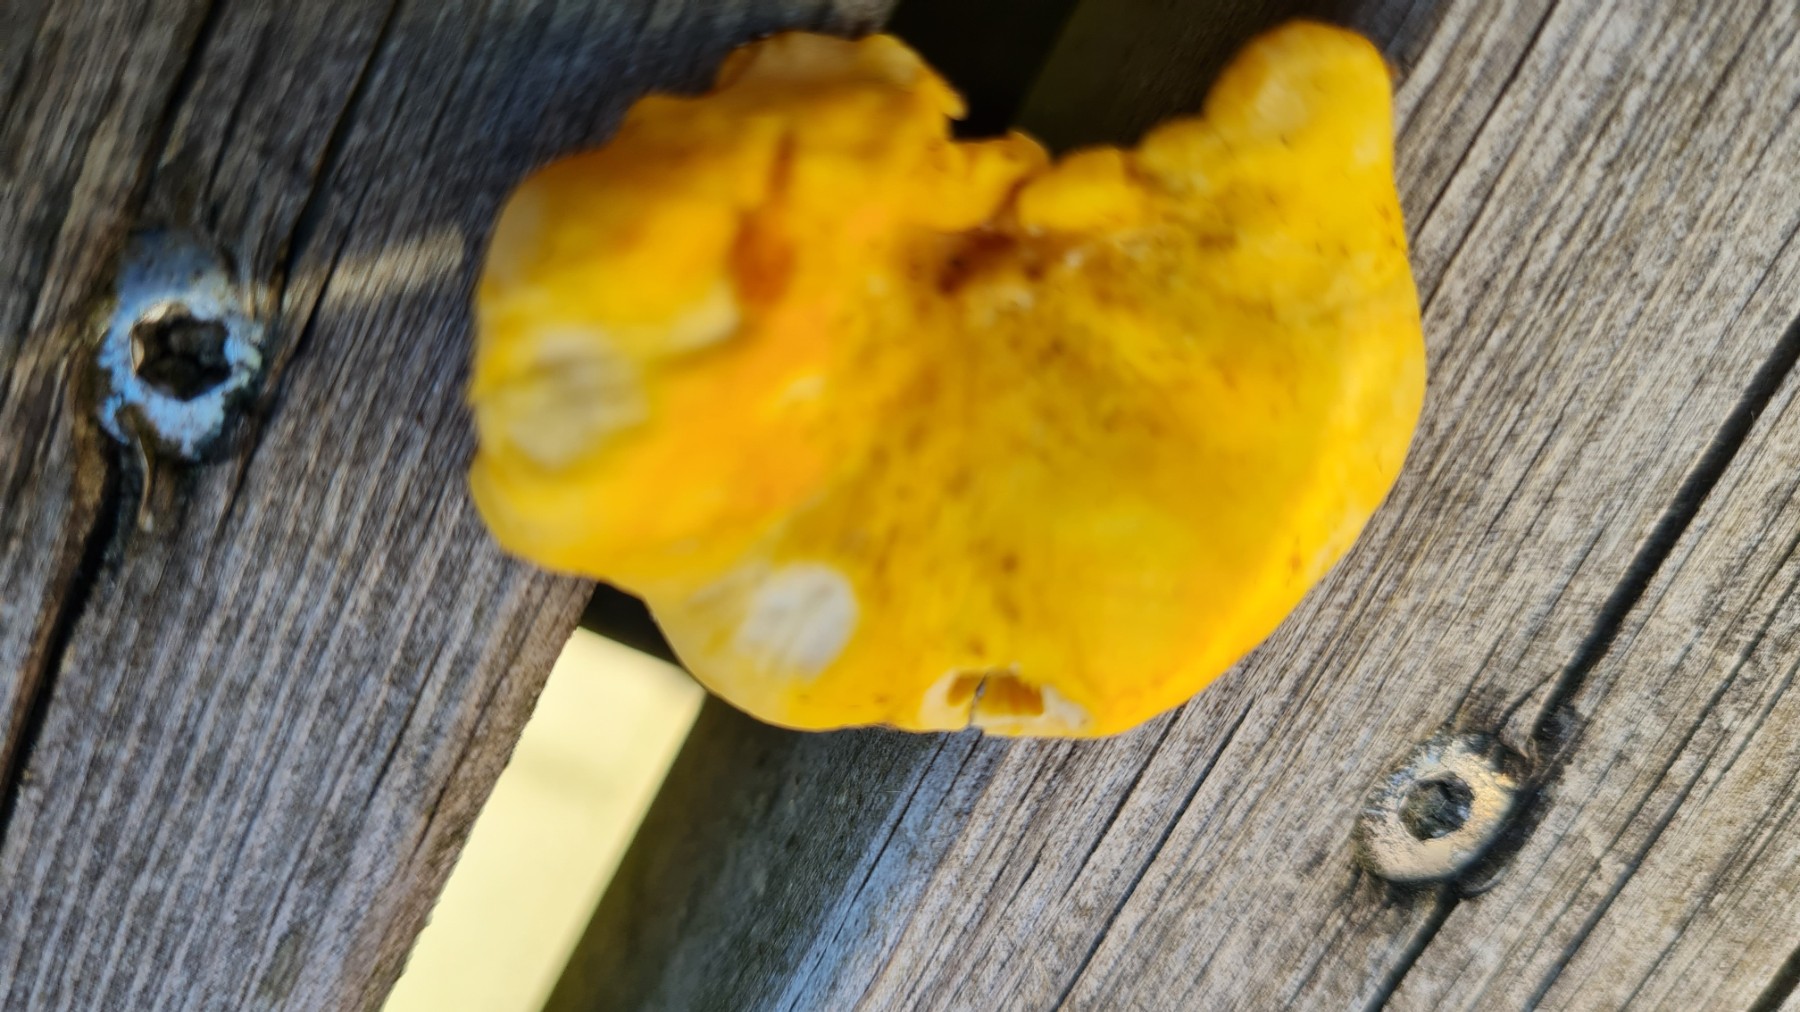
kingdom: Fungi
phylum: Basidiomycota
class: Agaricomycetes
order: Cantharellales
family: Hydnaceae
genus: Cantharellus
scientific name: Cantharellus amethysteus
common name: ametyst-kantarel
